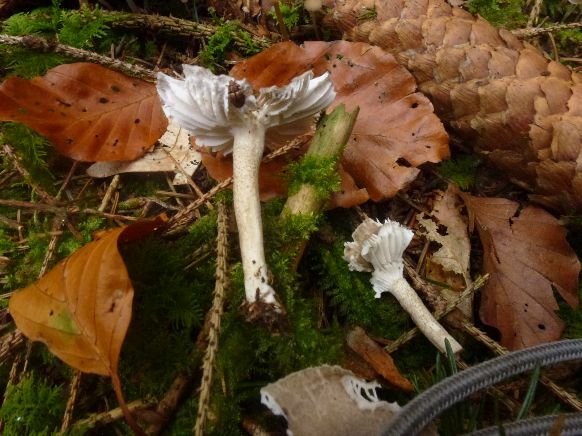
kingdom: Fungi
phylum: Basidiomycota
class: Agaricomycetes
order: Agaricales
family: Hygrophoraceae
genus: Hygrophorus
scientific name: Hygrophorus pustulatus
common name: mørkprikket sneglehat
